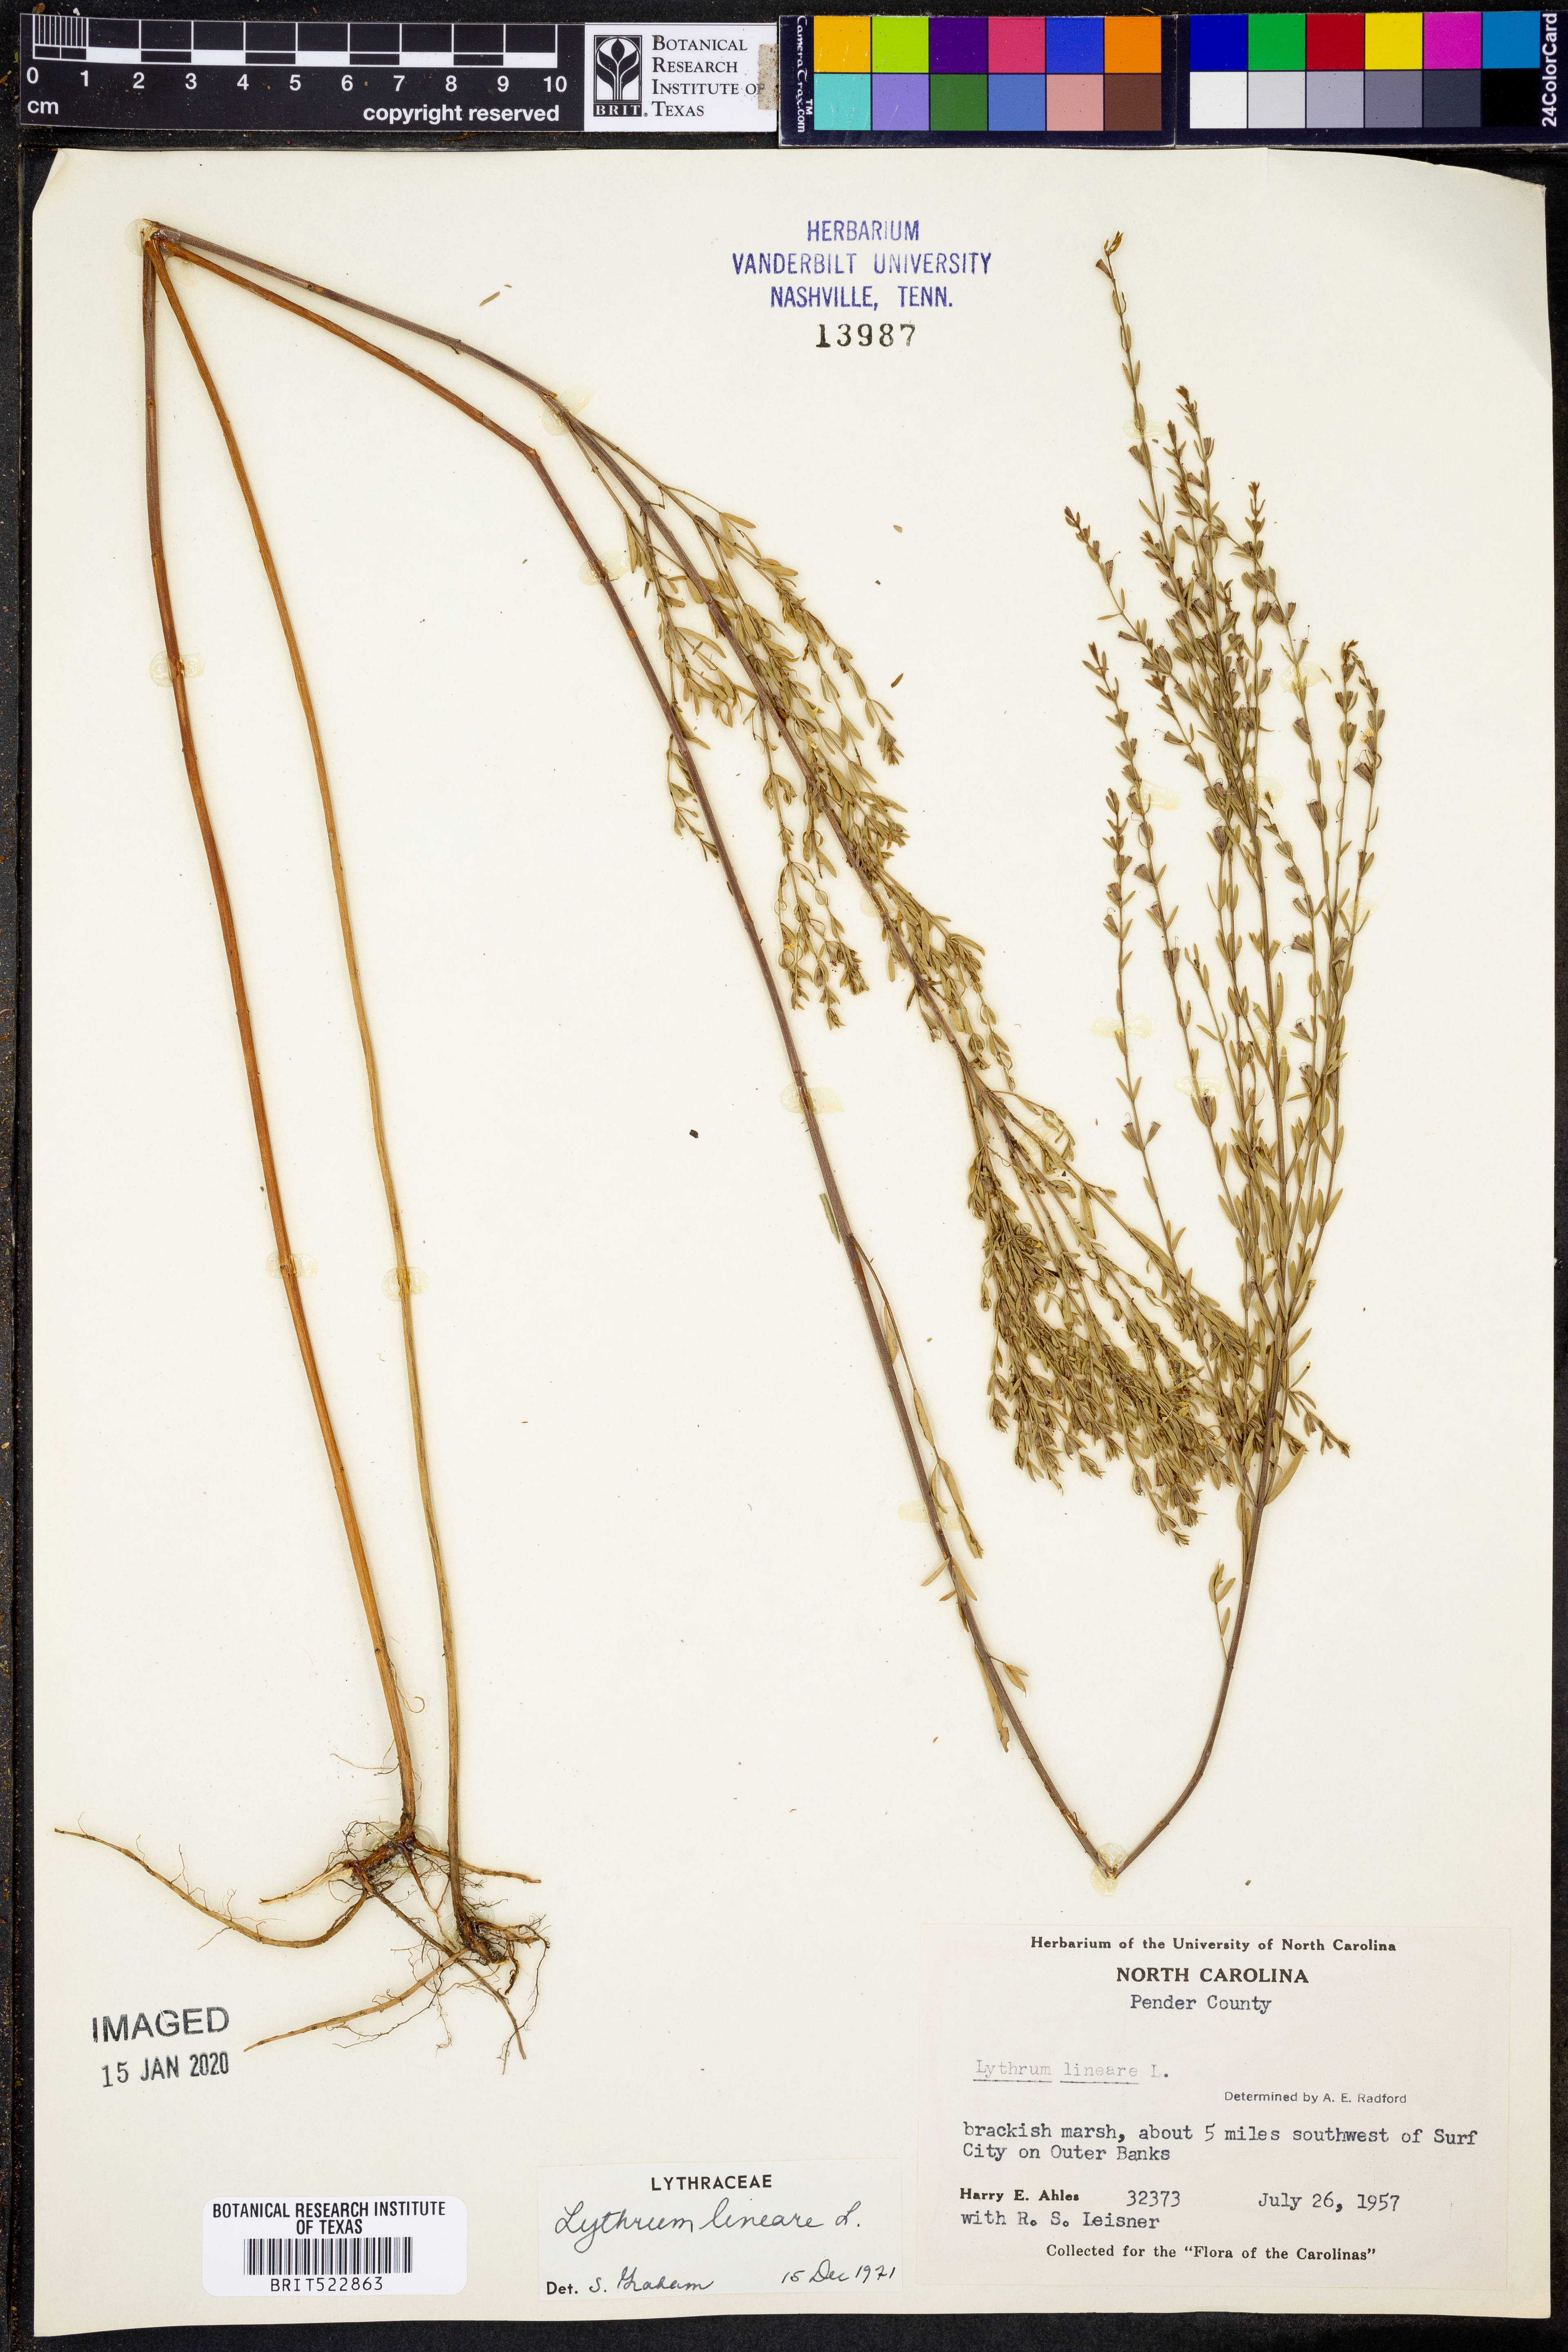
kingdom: Plantae
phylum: Tracheophyta
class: Magnoliopsida
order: Myrtales
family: Lythraceae
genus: Lythrum
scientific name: Lythrum lineare
